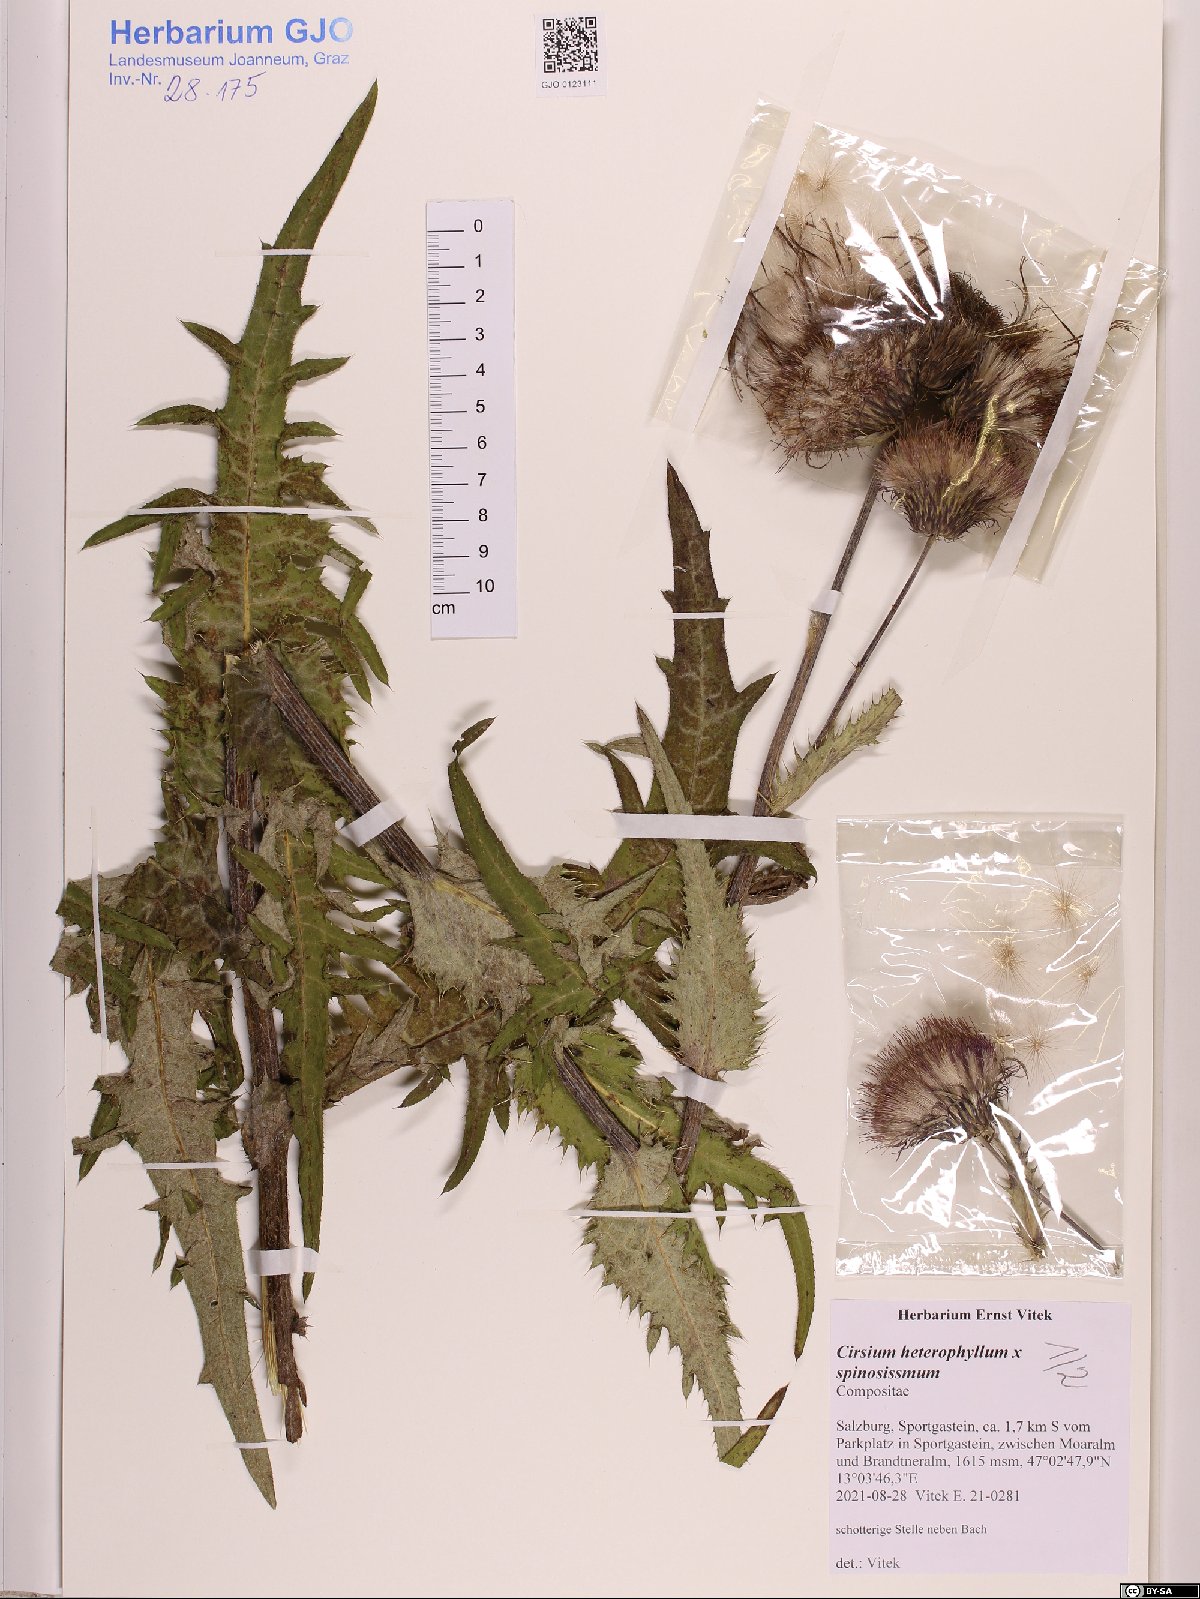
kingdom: Plantae
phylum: Tracheophyta
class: Magnoliopsida
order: Asterales
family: Asteraceae
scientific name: Asteraceae
